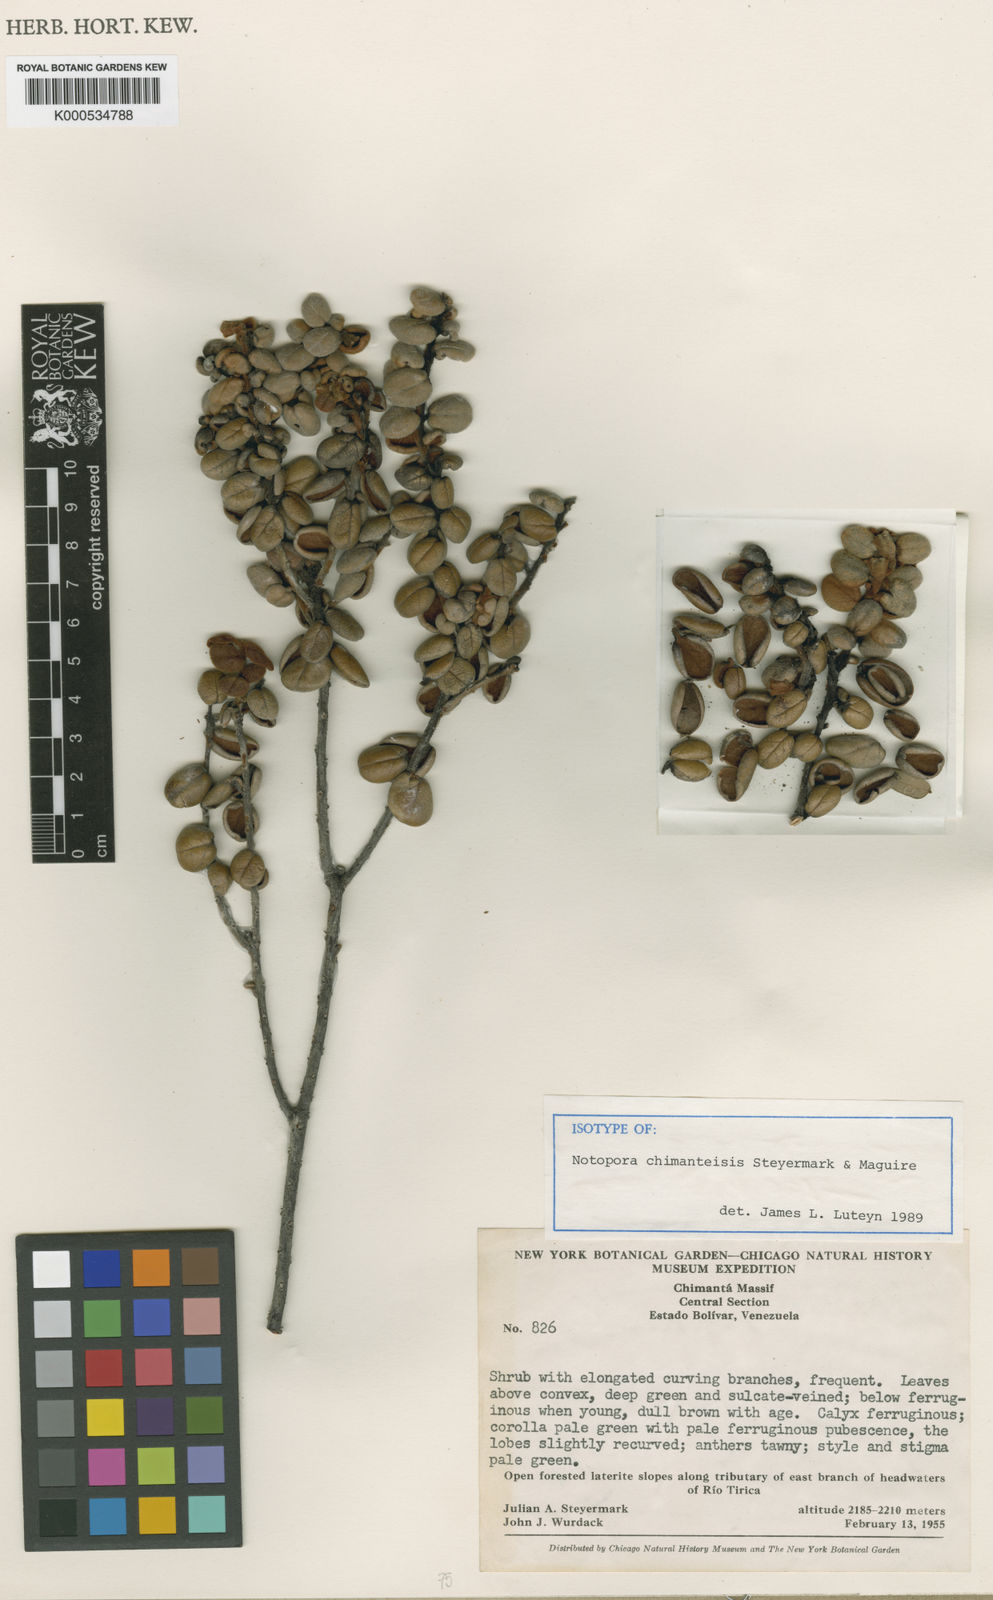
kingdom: Plantae
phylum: Tracheophyta
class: Magnoliopsida
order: Ericales
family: Ericaceae
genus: Notopora
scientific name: Notopora chimantensis
